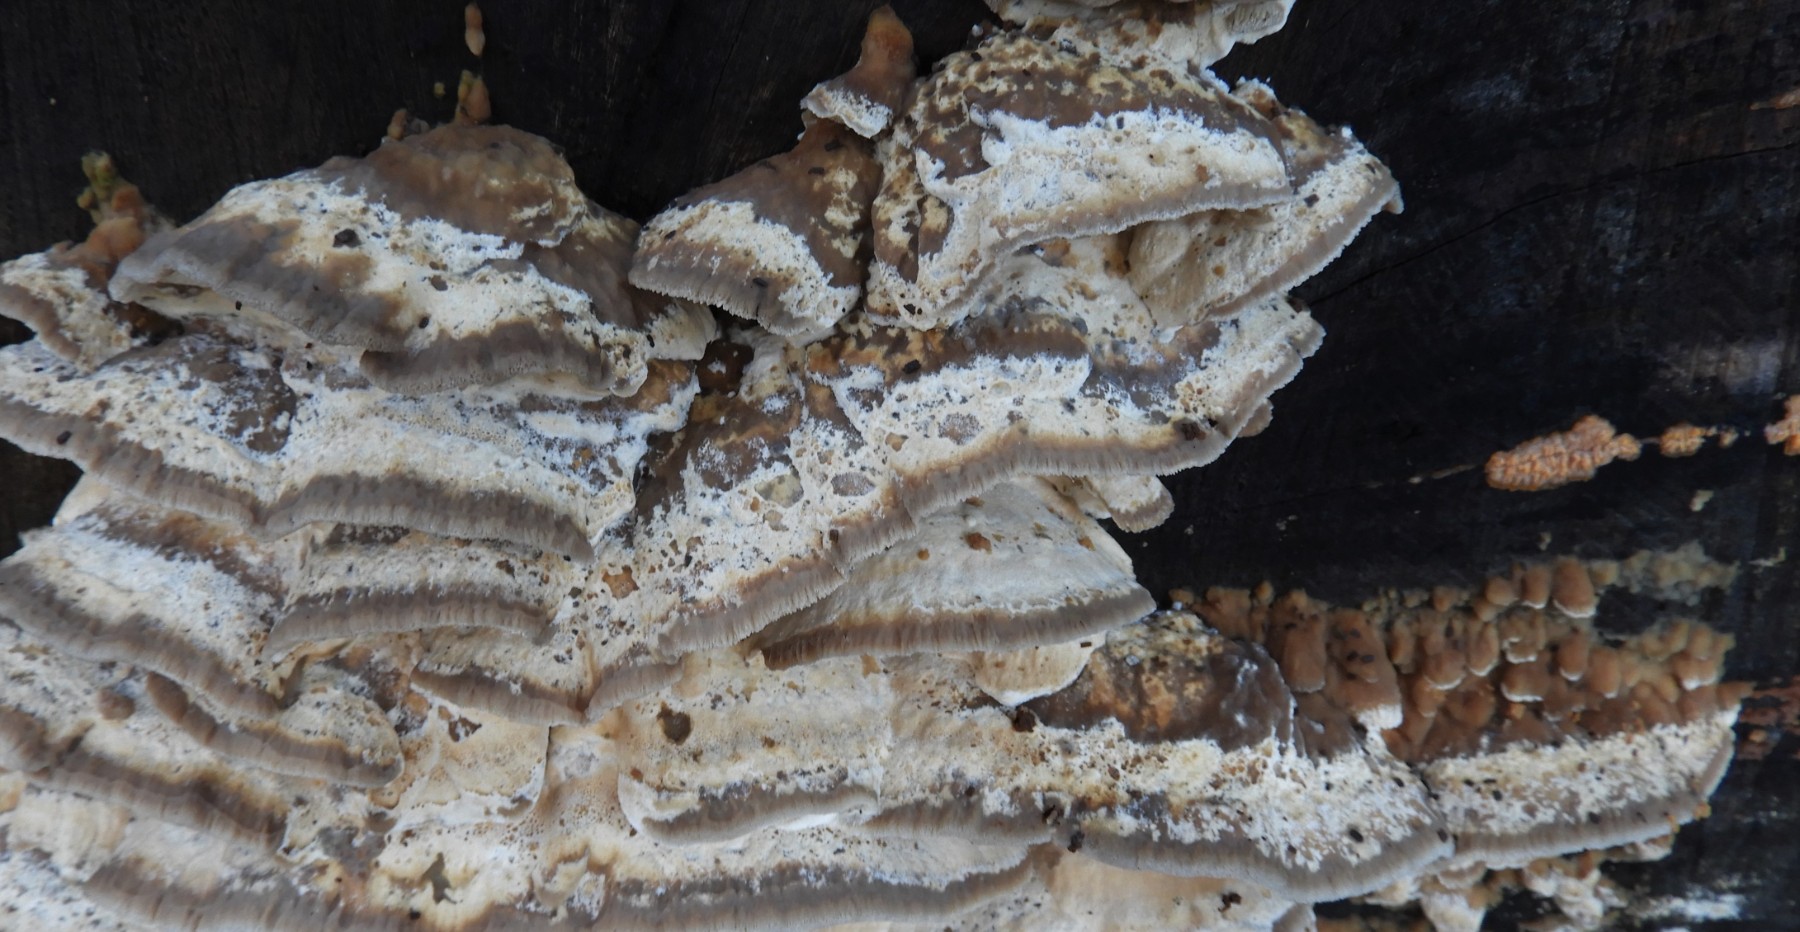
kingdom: Fungi
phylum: Basidiomycota
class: Agaricomycetes
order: Polyporales
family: Phanerochaetaceae
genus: Bjerkandera
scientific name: Bjerkandera fumosa
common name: grågul sodporesvamp
